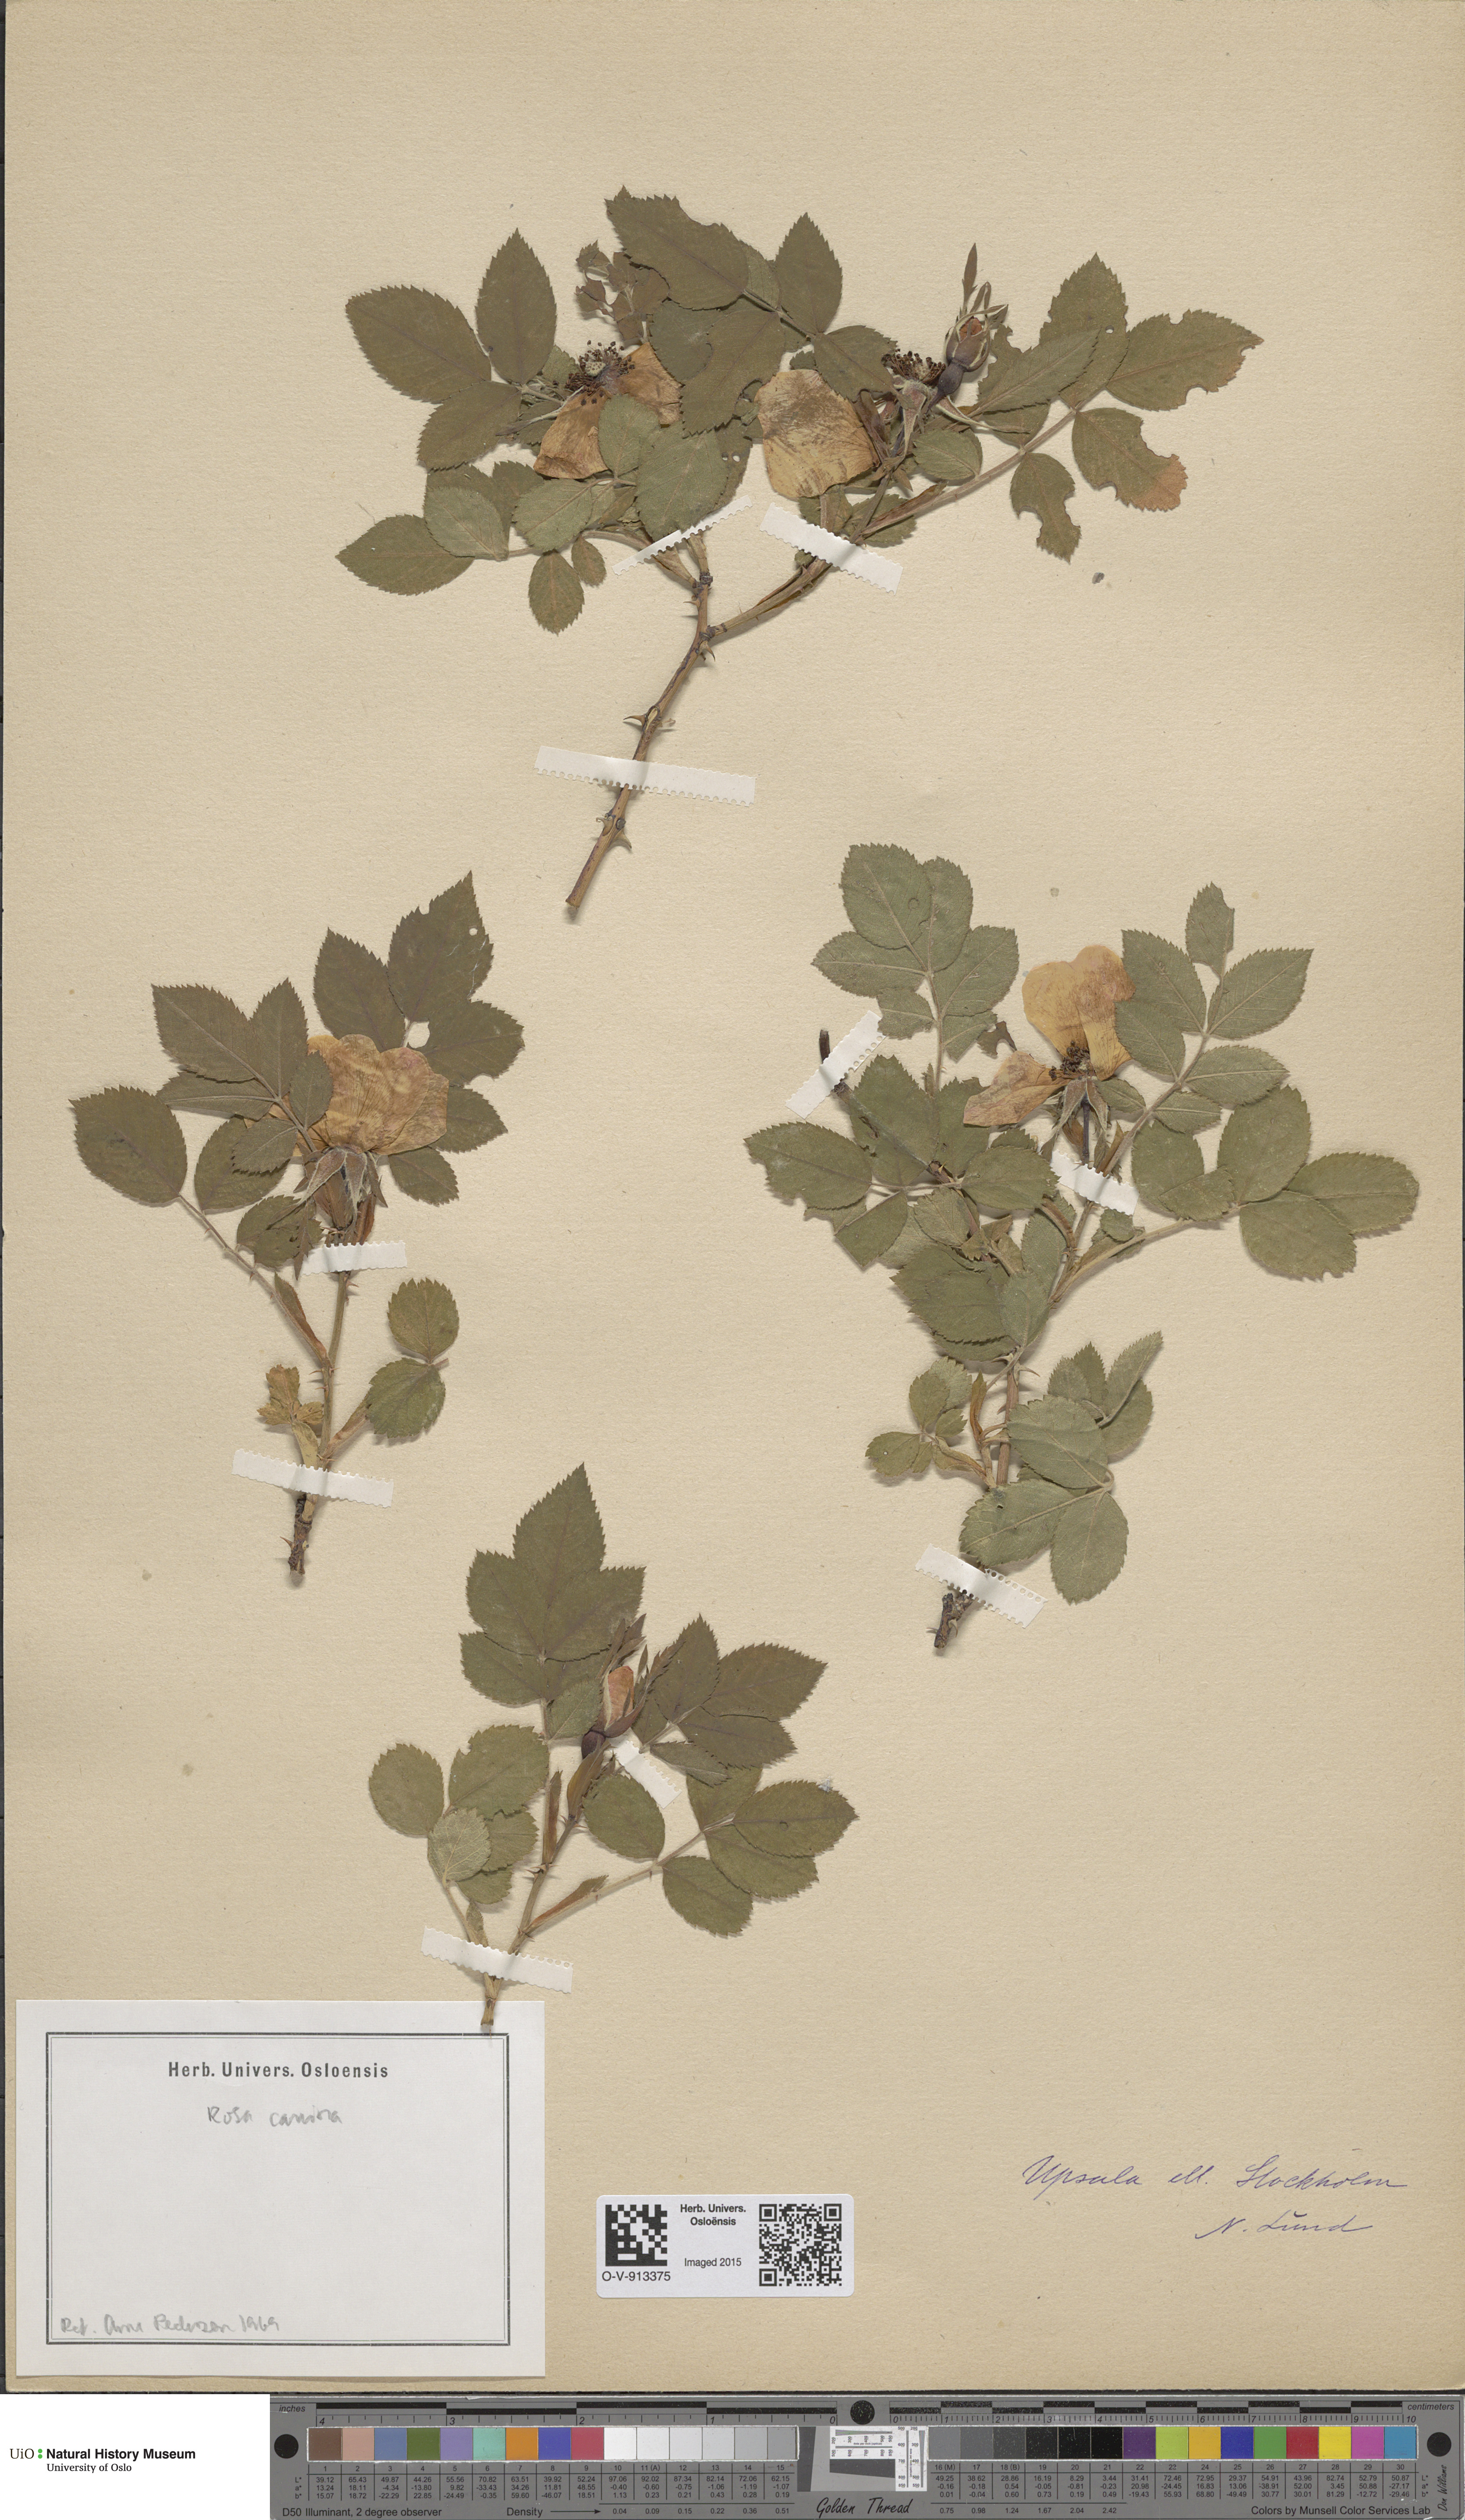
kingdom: Plantae
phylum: Tracheophyta
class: Magnoliopsida
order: Rosales
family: Rosaceae
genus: Rosa
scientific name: Rosa canina
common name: Dog rose
